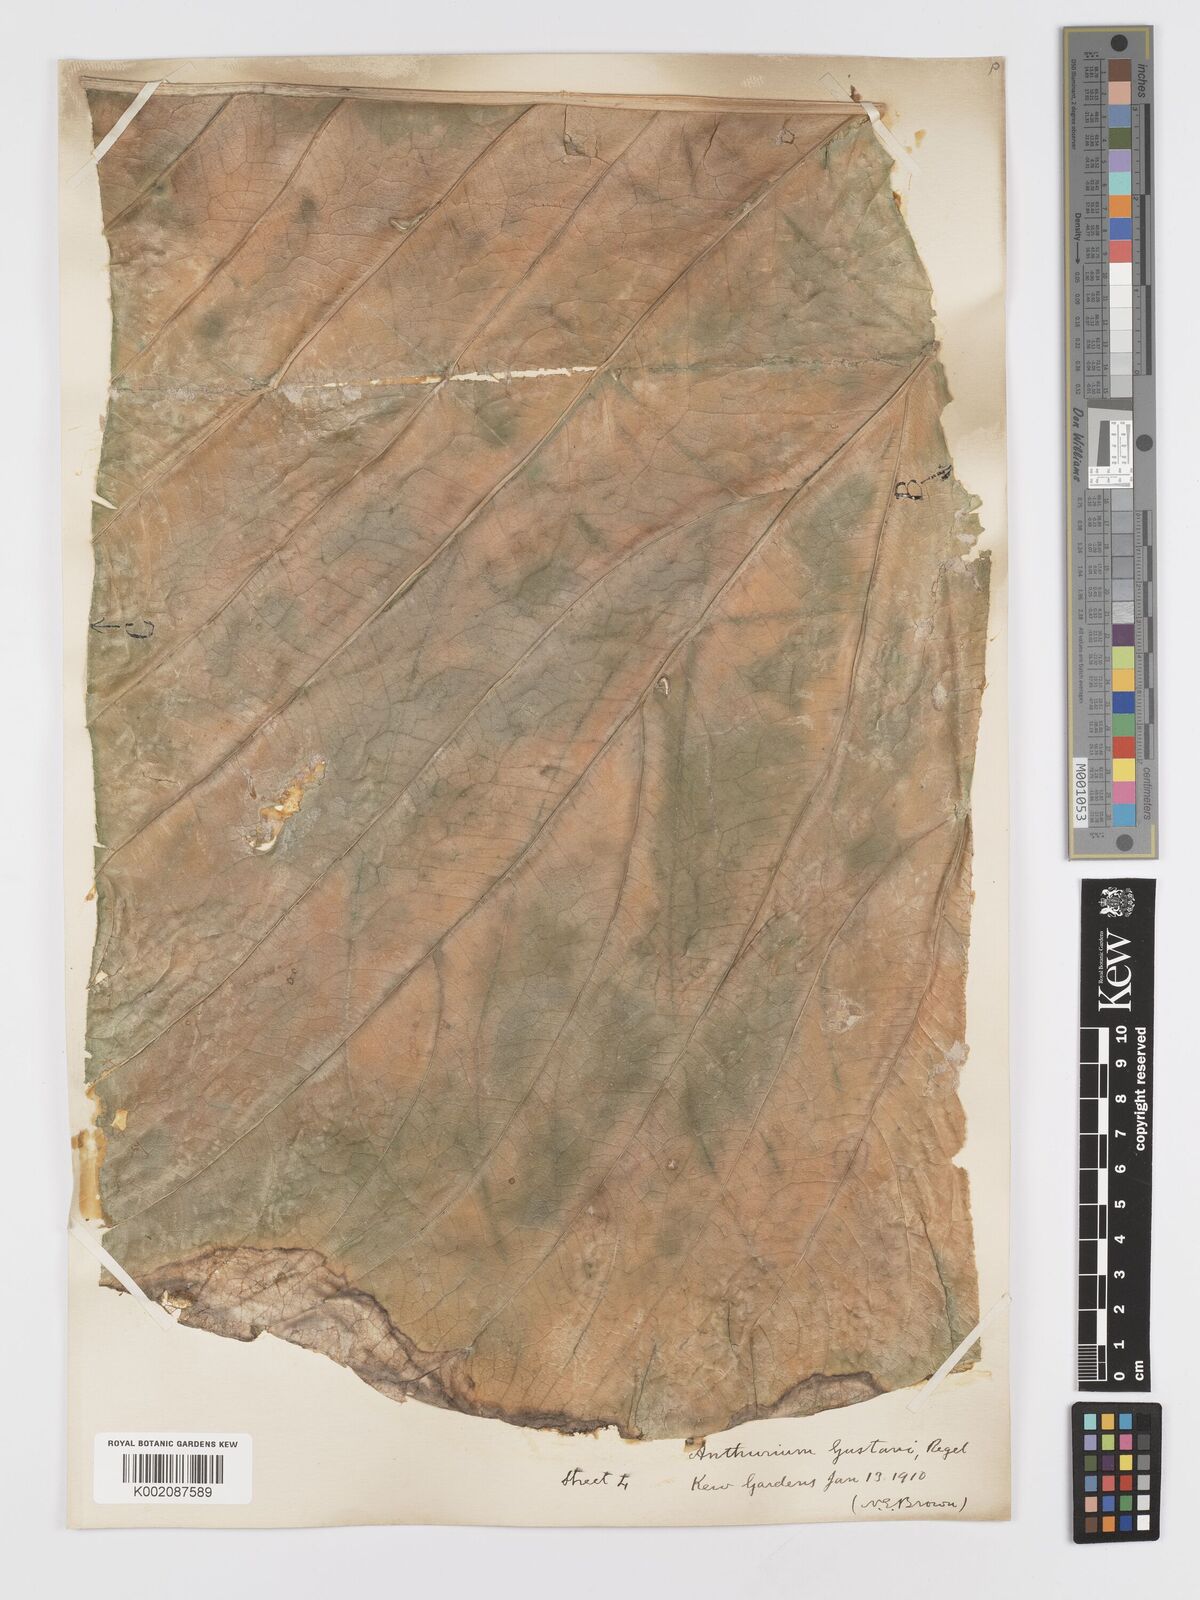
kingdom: Plantae
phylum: Tracheophyta
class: Liliopsida
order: Alismatales
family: Araceae
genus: Anthurium
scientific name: Anthurium gustavii
